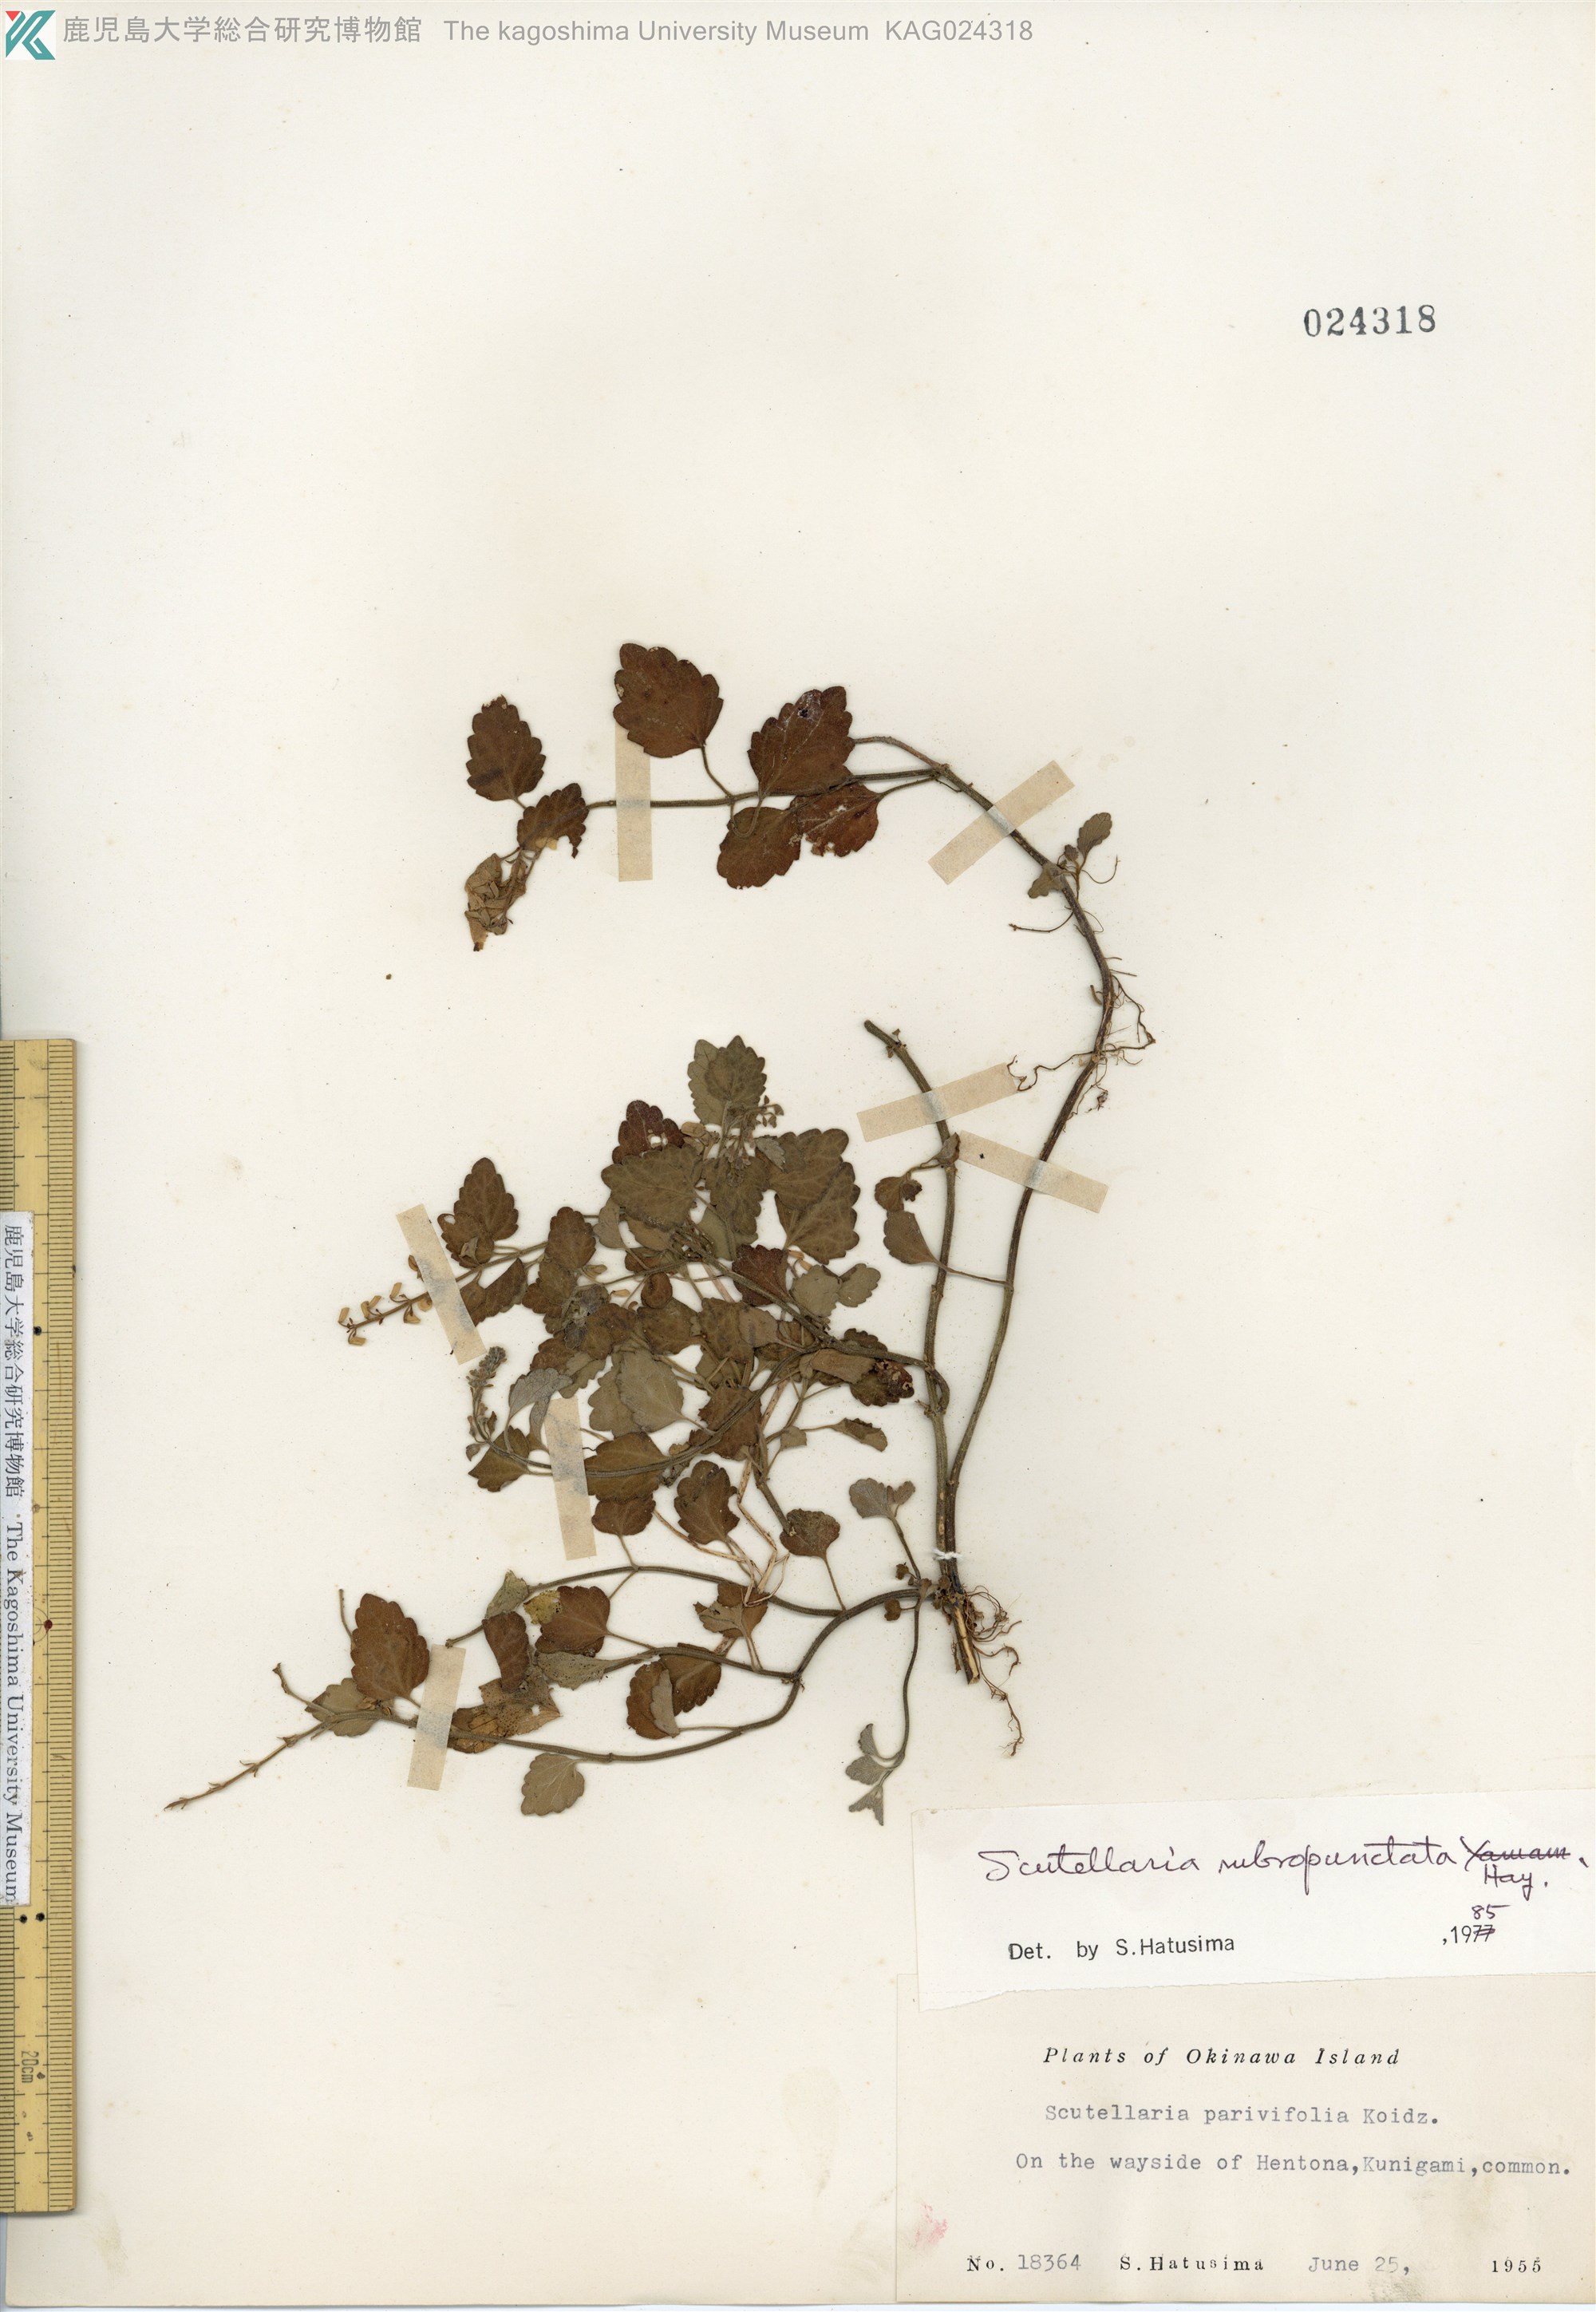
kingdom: Plantae
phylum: Tracheophyta
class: Magnoliopsida
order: Lamiales
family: Lamiaceae
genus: Scutellaria
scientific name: Scutellaria rubropunctata
